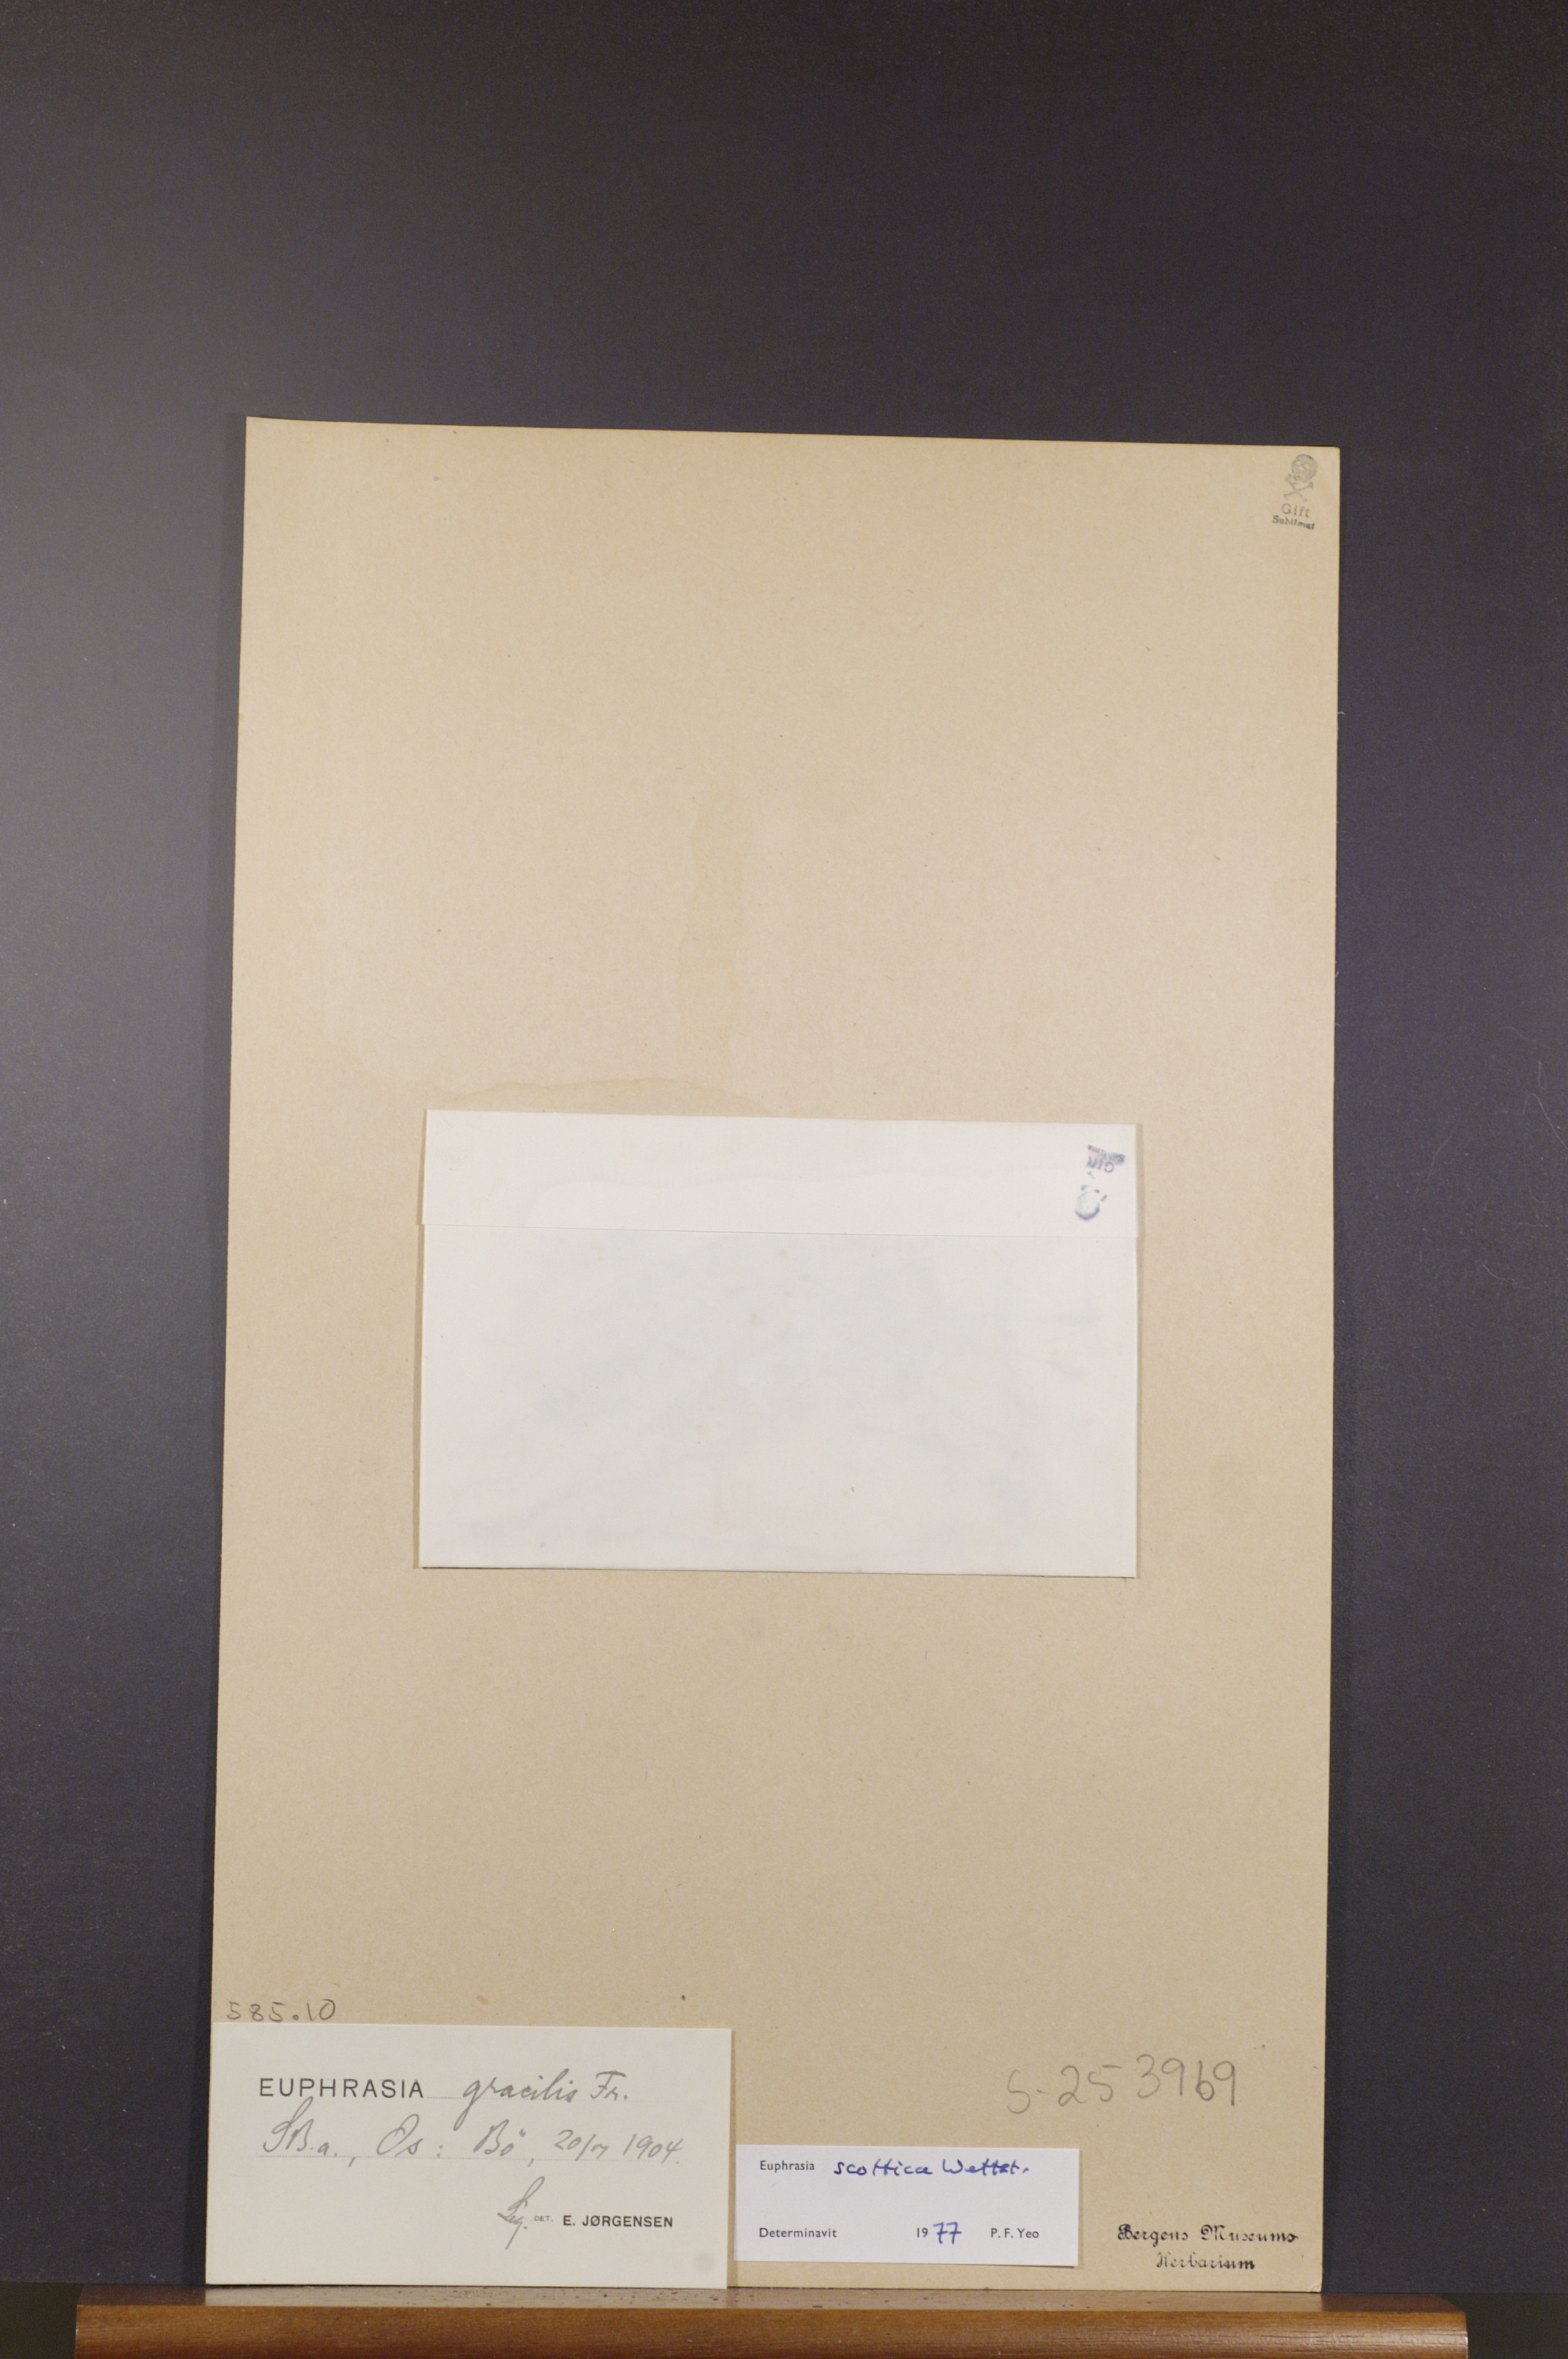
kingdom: Plantae
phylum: Tracheophyta
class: Magnoliopsida
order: Lamiales
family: Orobanchaceae
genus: Euphrasia
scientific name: Euphrasia scottica
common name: Slender scottish eyebright
